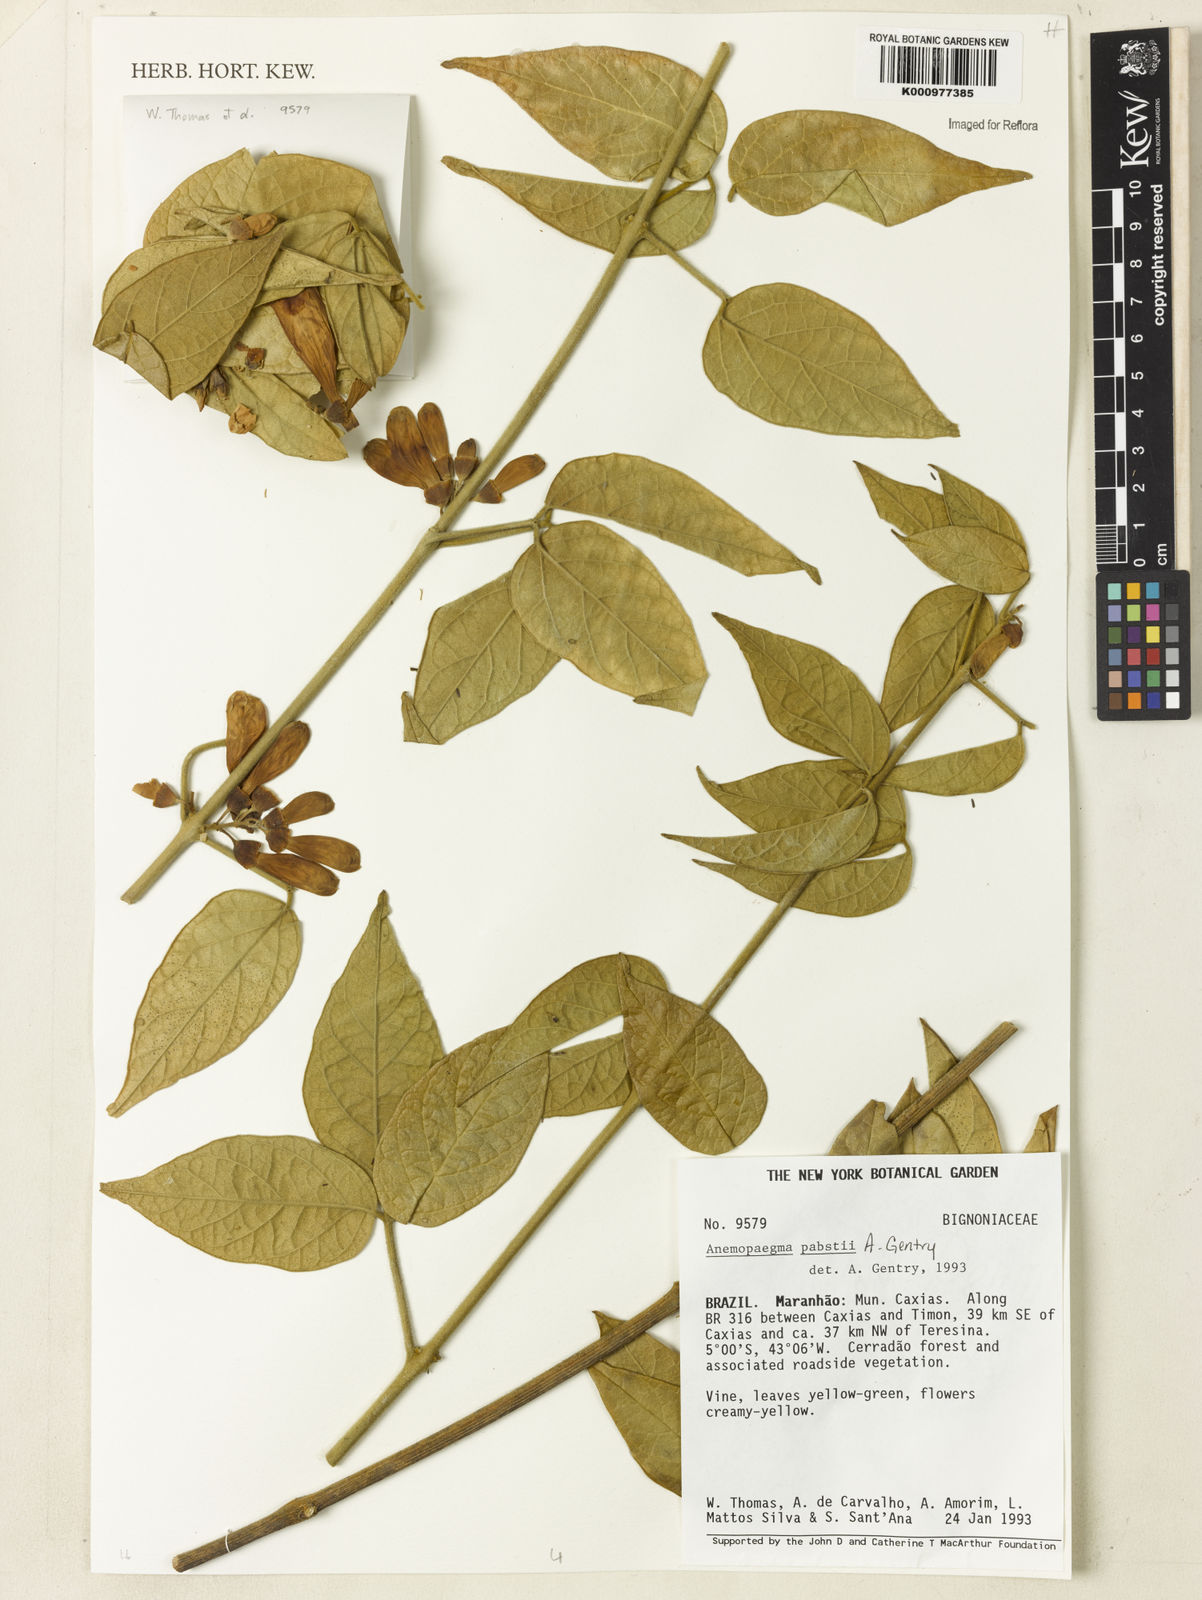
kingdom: Plantae
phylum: Tracheophyta
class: Magnoliopsida
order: Lamiales
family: Bignoniaceae
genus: Anemopaegma
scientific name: Anemopaegma pabstii
